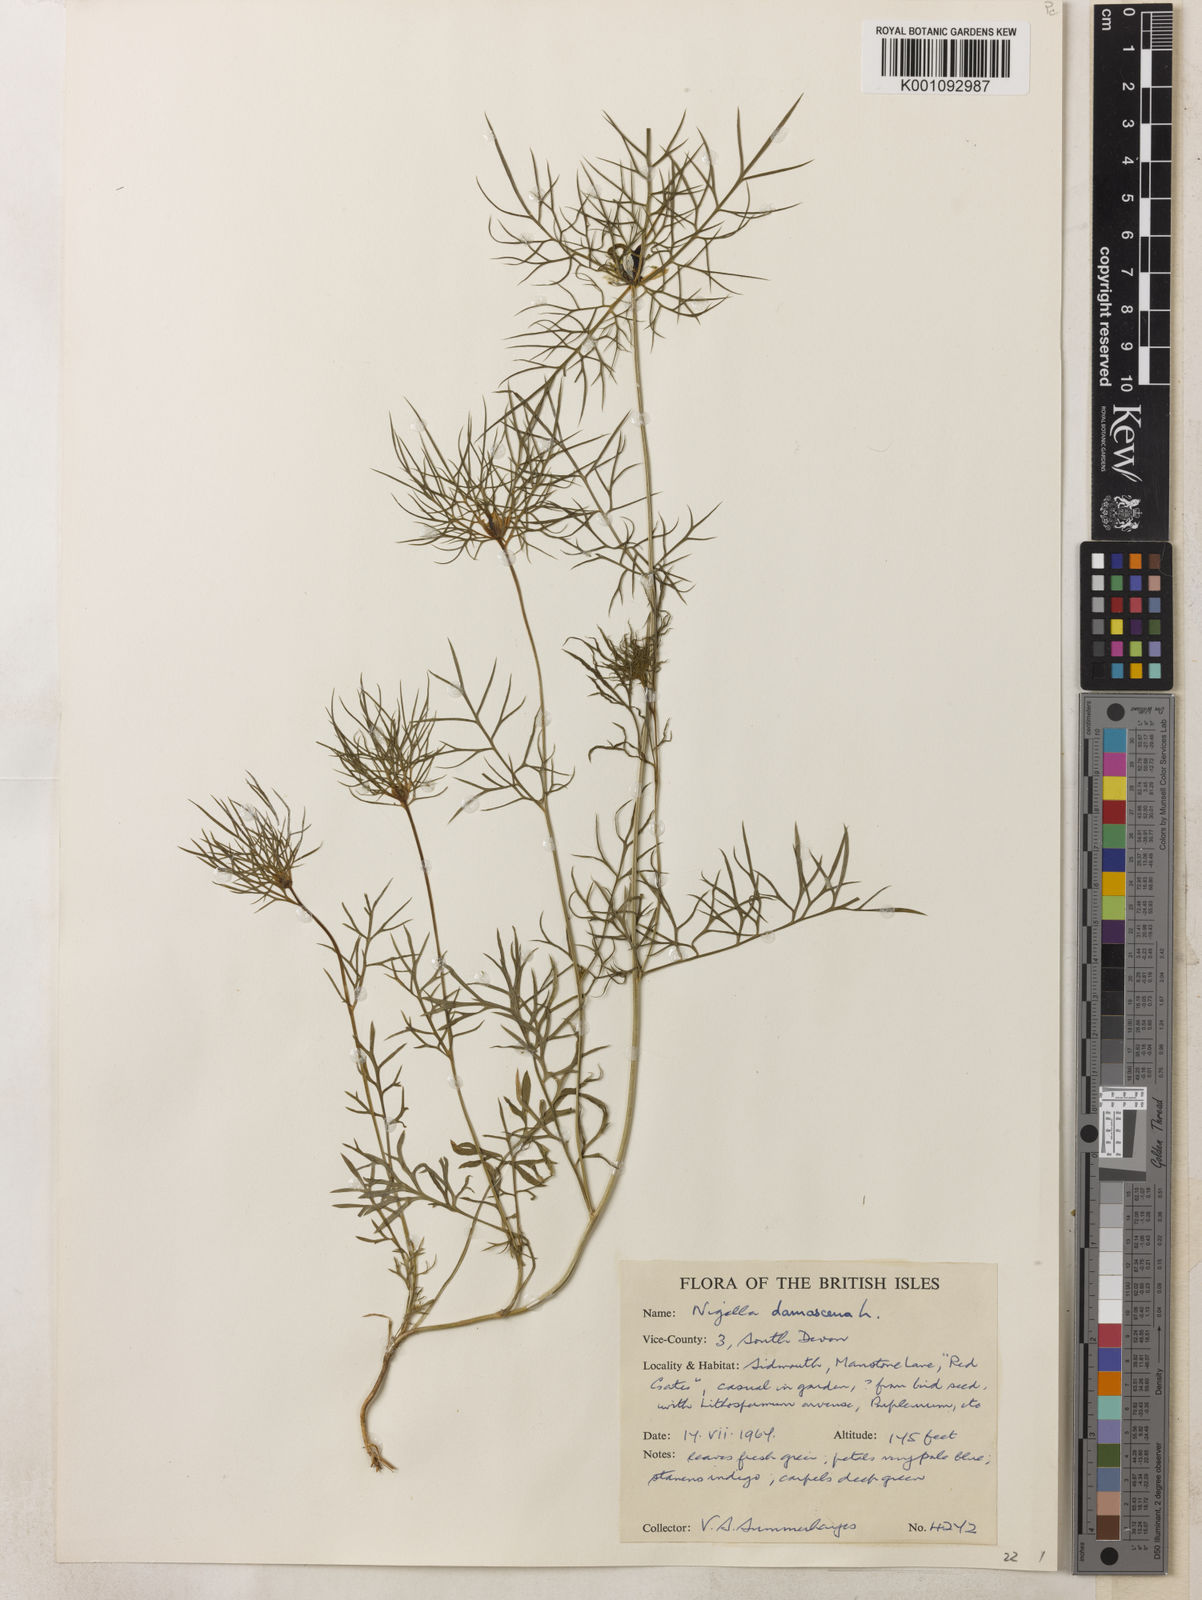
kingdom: Plantae
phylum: Tracheophyta
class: Magnoliopsida
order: Ranunculales
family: Ranunculaceae
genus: Nigella
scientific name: Nigella damascena
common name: Love-in-a-mist
